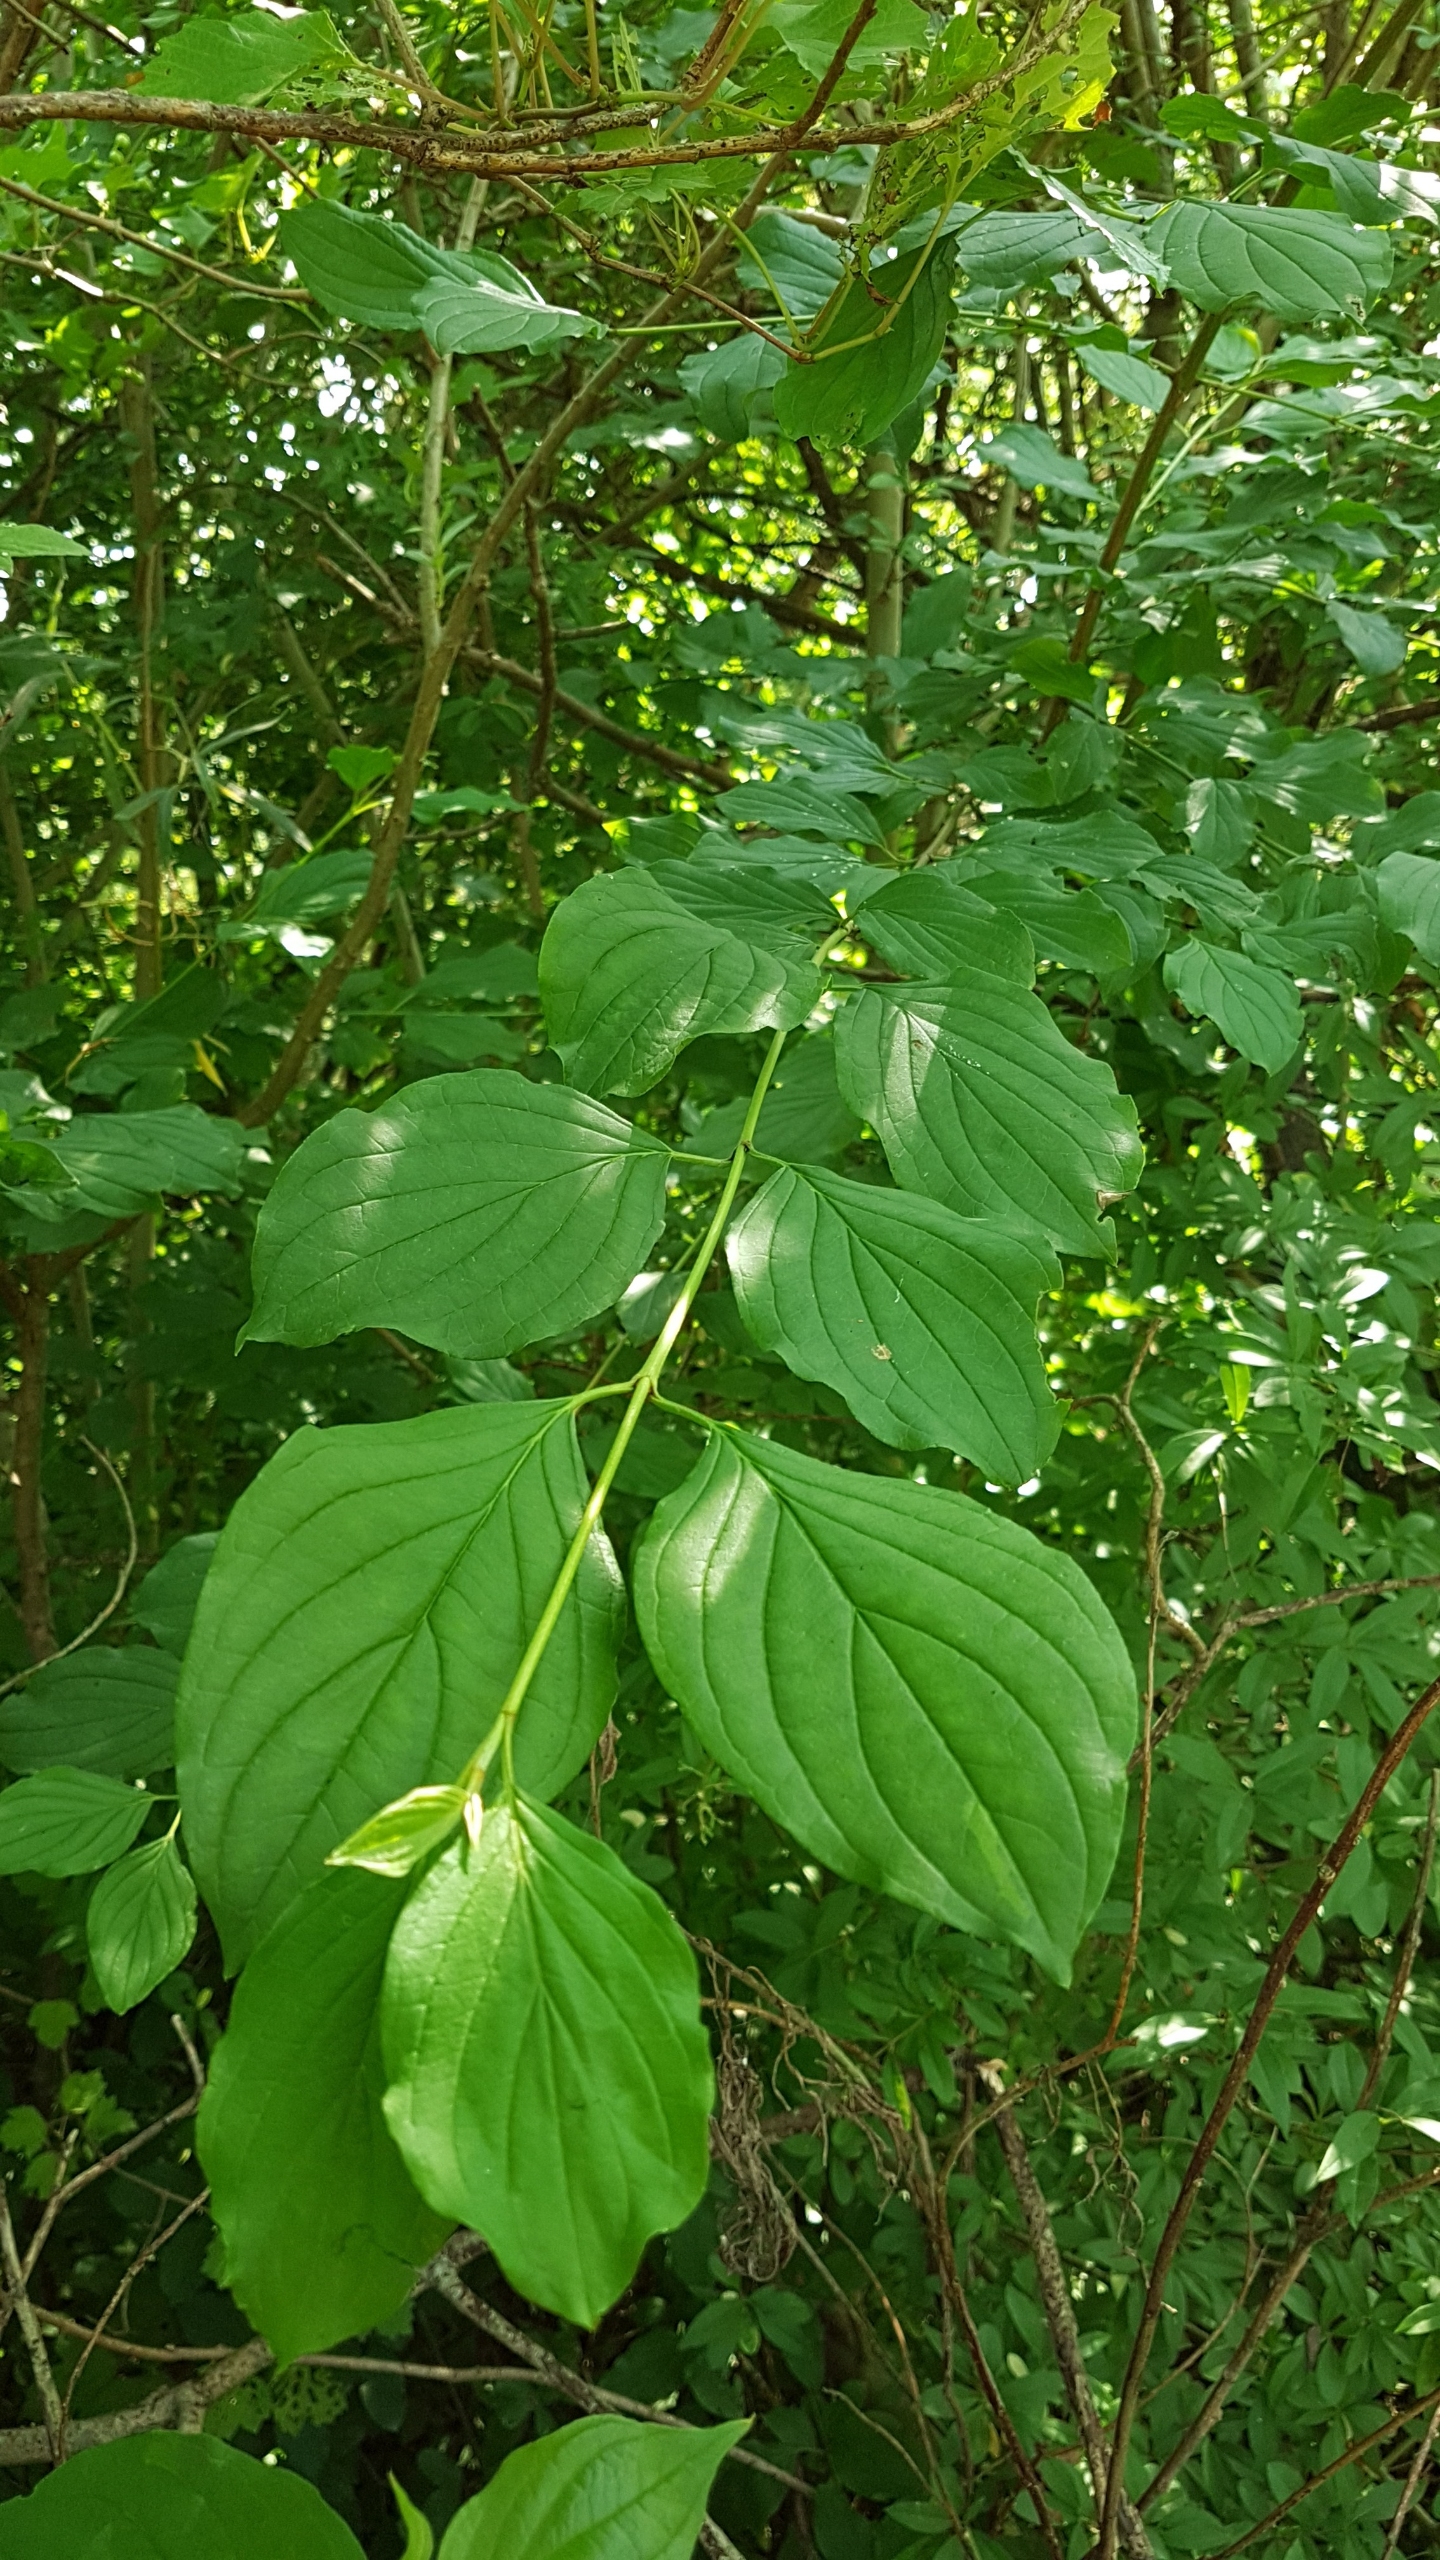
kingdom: Plantae
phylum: Tracheophyta
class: Magnoliopsida
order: Cornales
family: Cornaceae
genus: Cornus
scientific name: Cornus
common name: Kornelslægten
